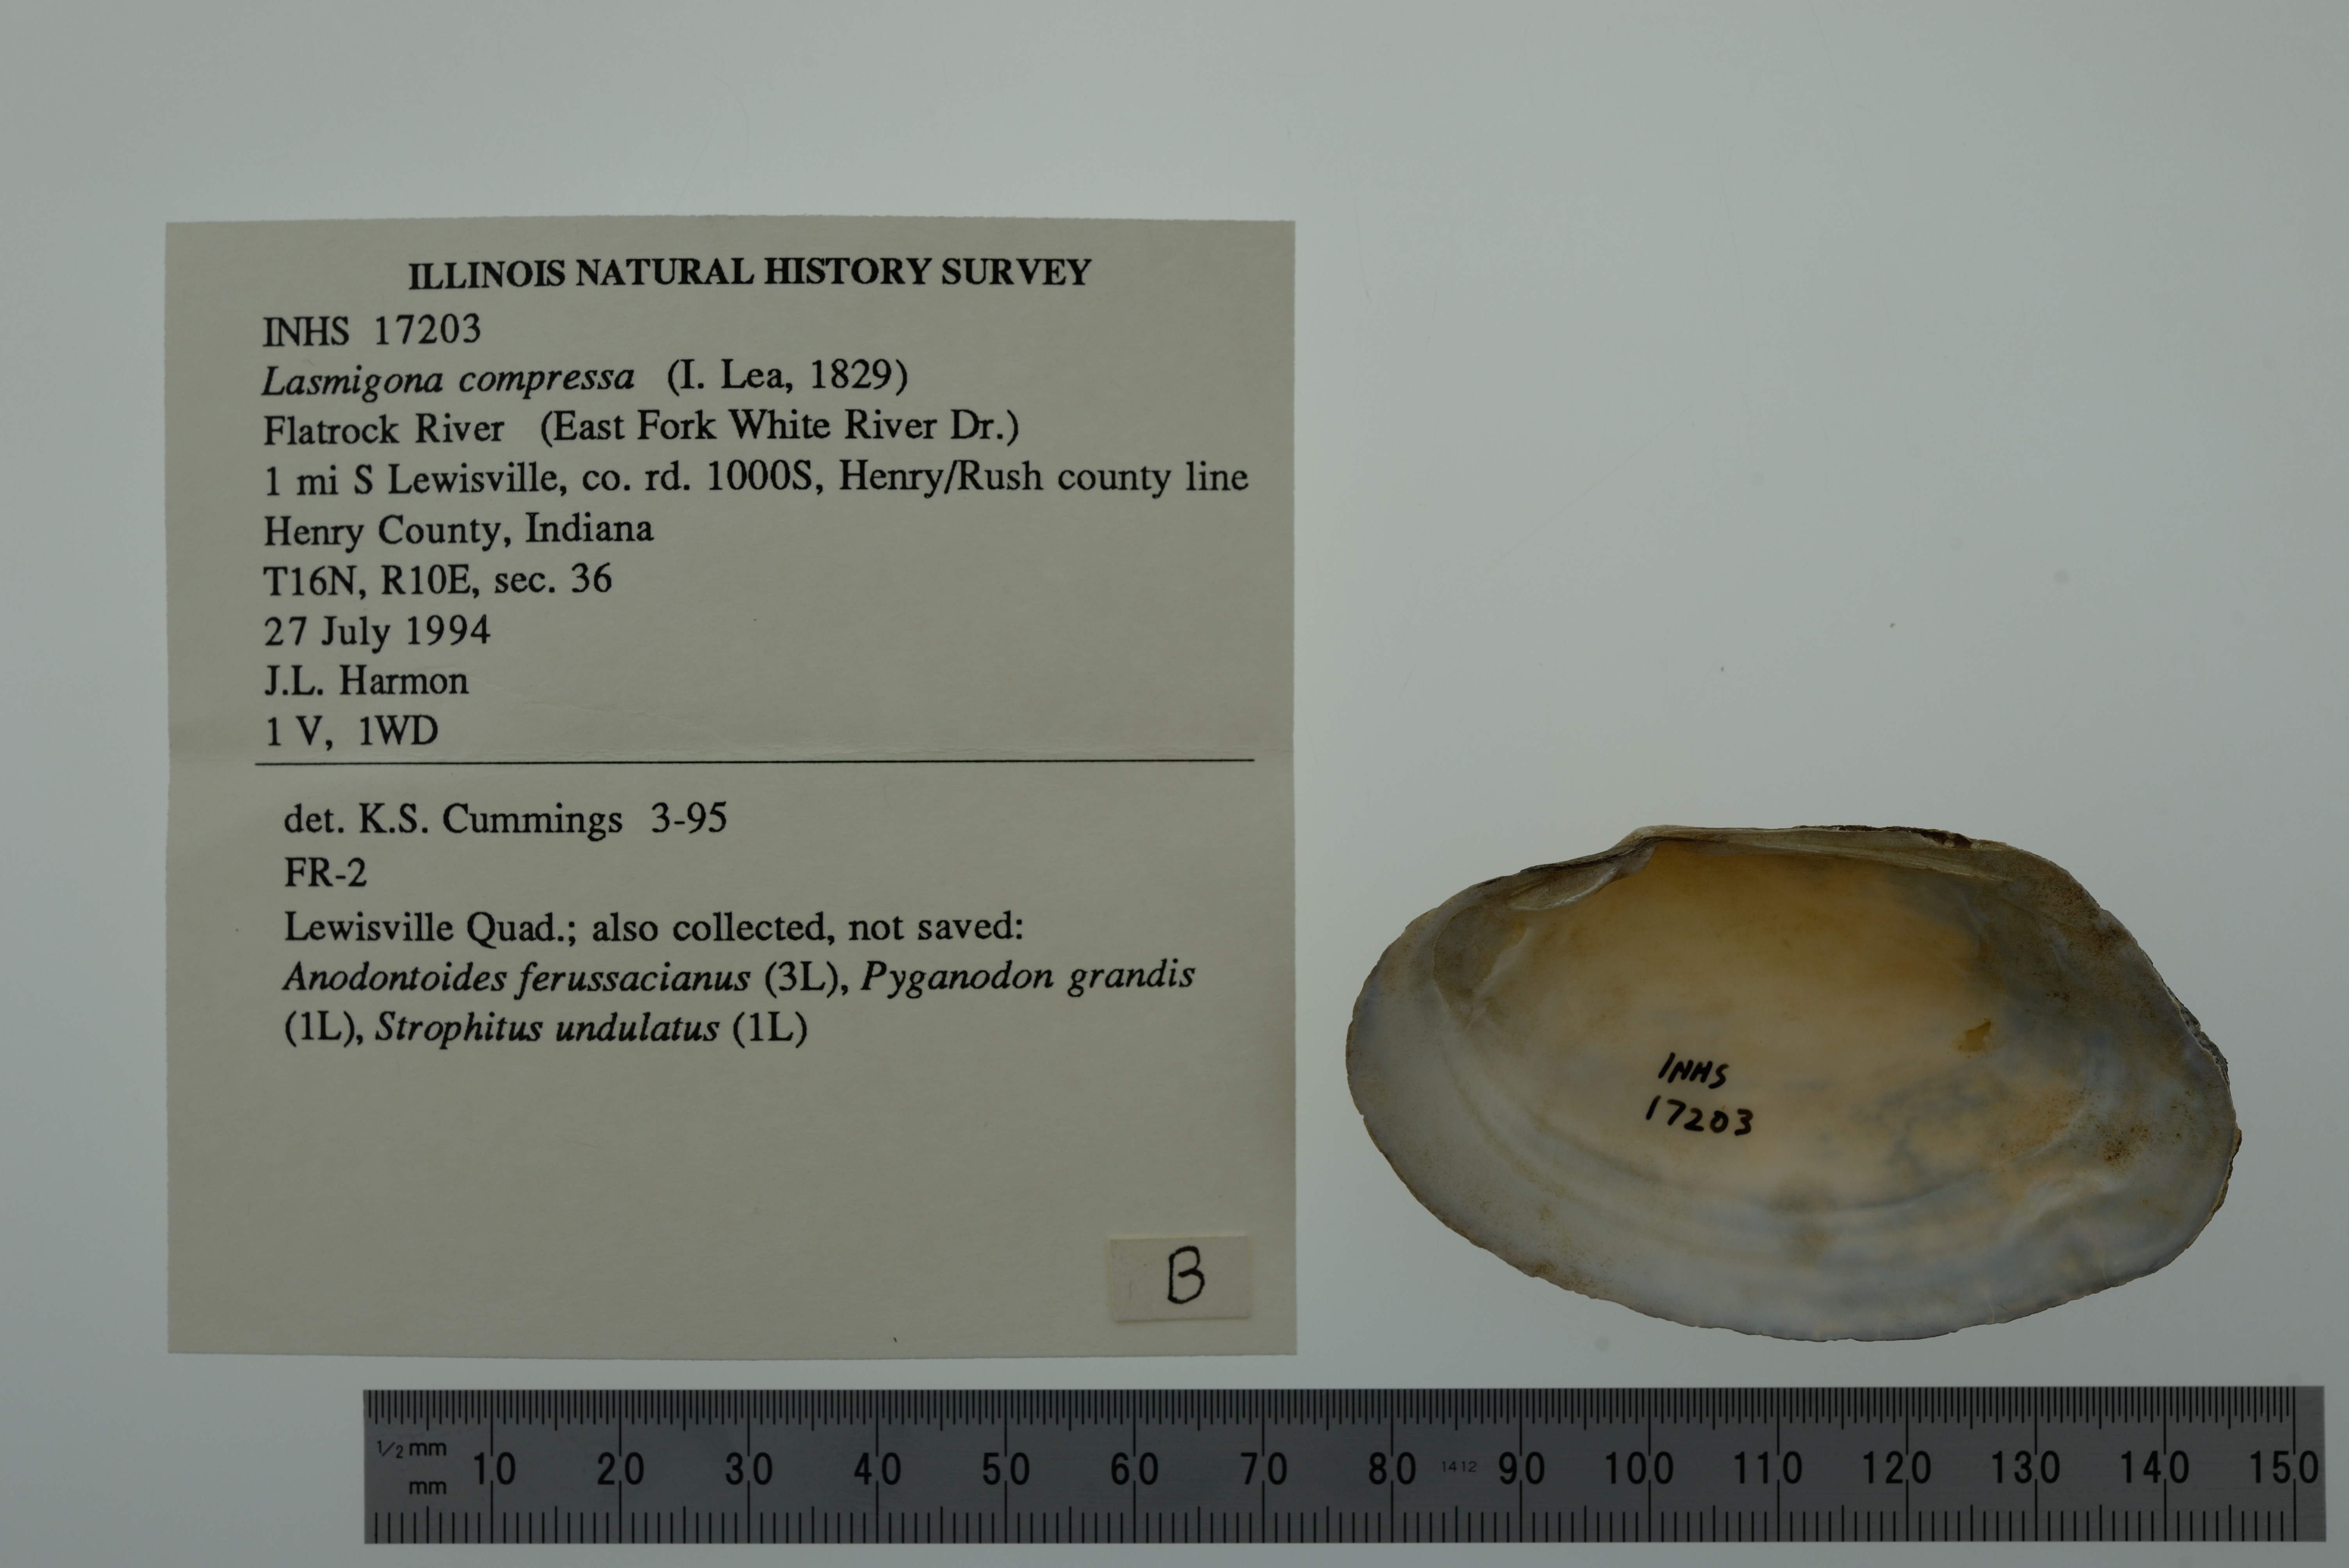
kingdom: Animalia
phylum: Mollusca
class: Bivalvia
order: Unionida
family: Unionidae
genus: Lasmigona
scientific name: Lasmigona compressa
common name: Creek heelsplitter
